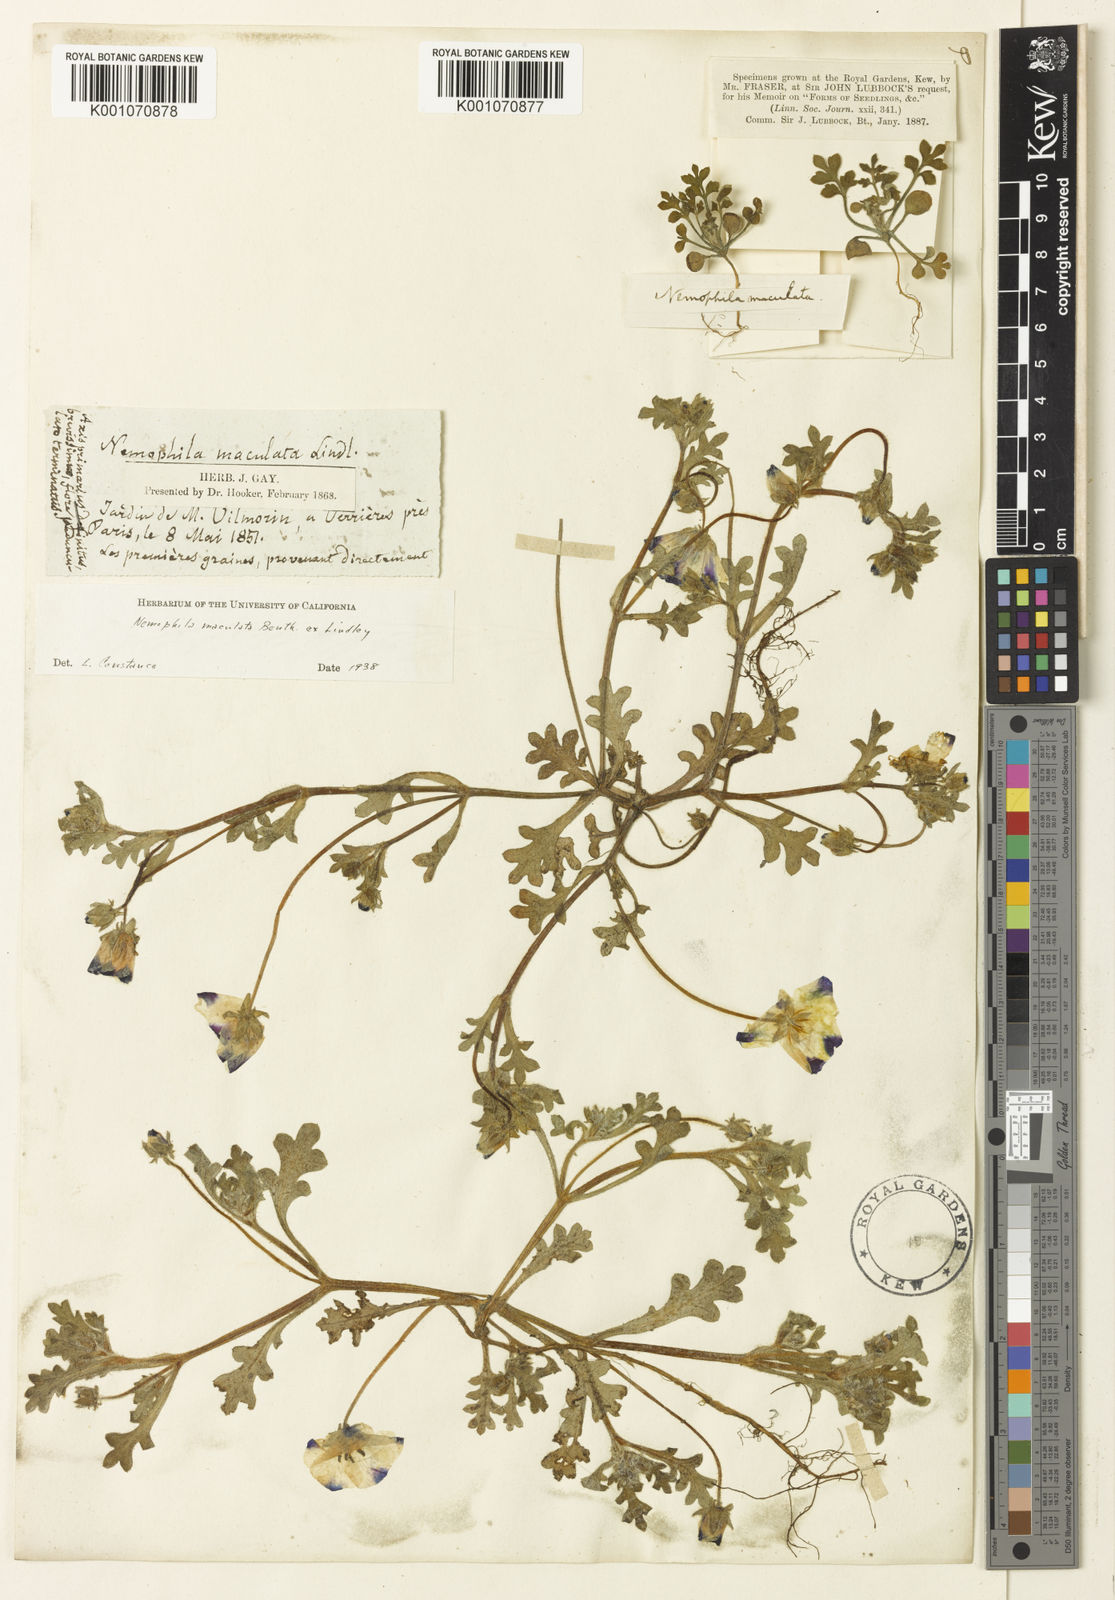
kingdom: Plantae
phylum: Tracheophyta
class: Magnoliopsida
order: Boraginales
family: Hydrophyllaceae
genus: Nemophila
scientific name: Nemophila maculata
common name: Fivespot
